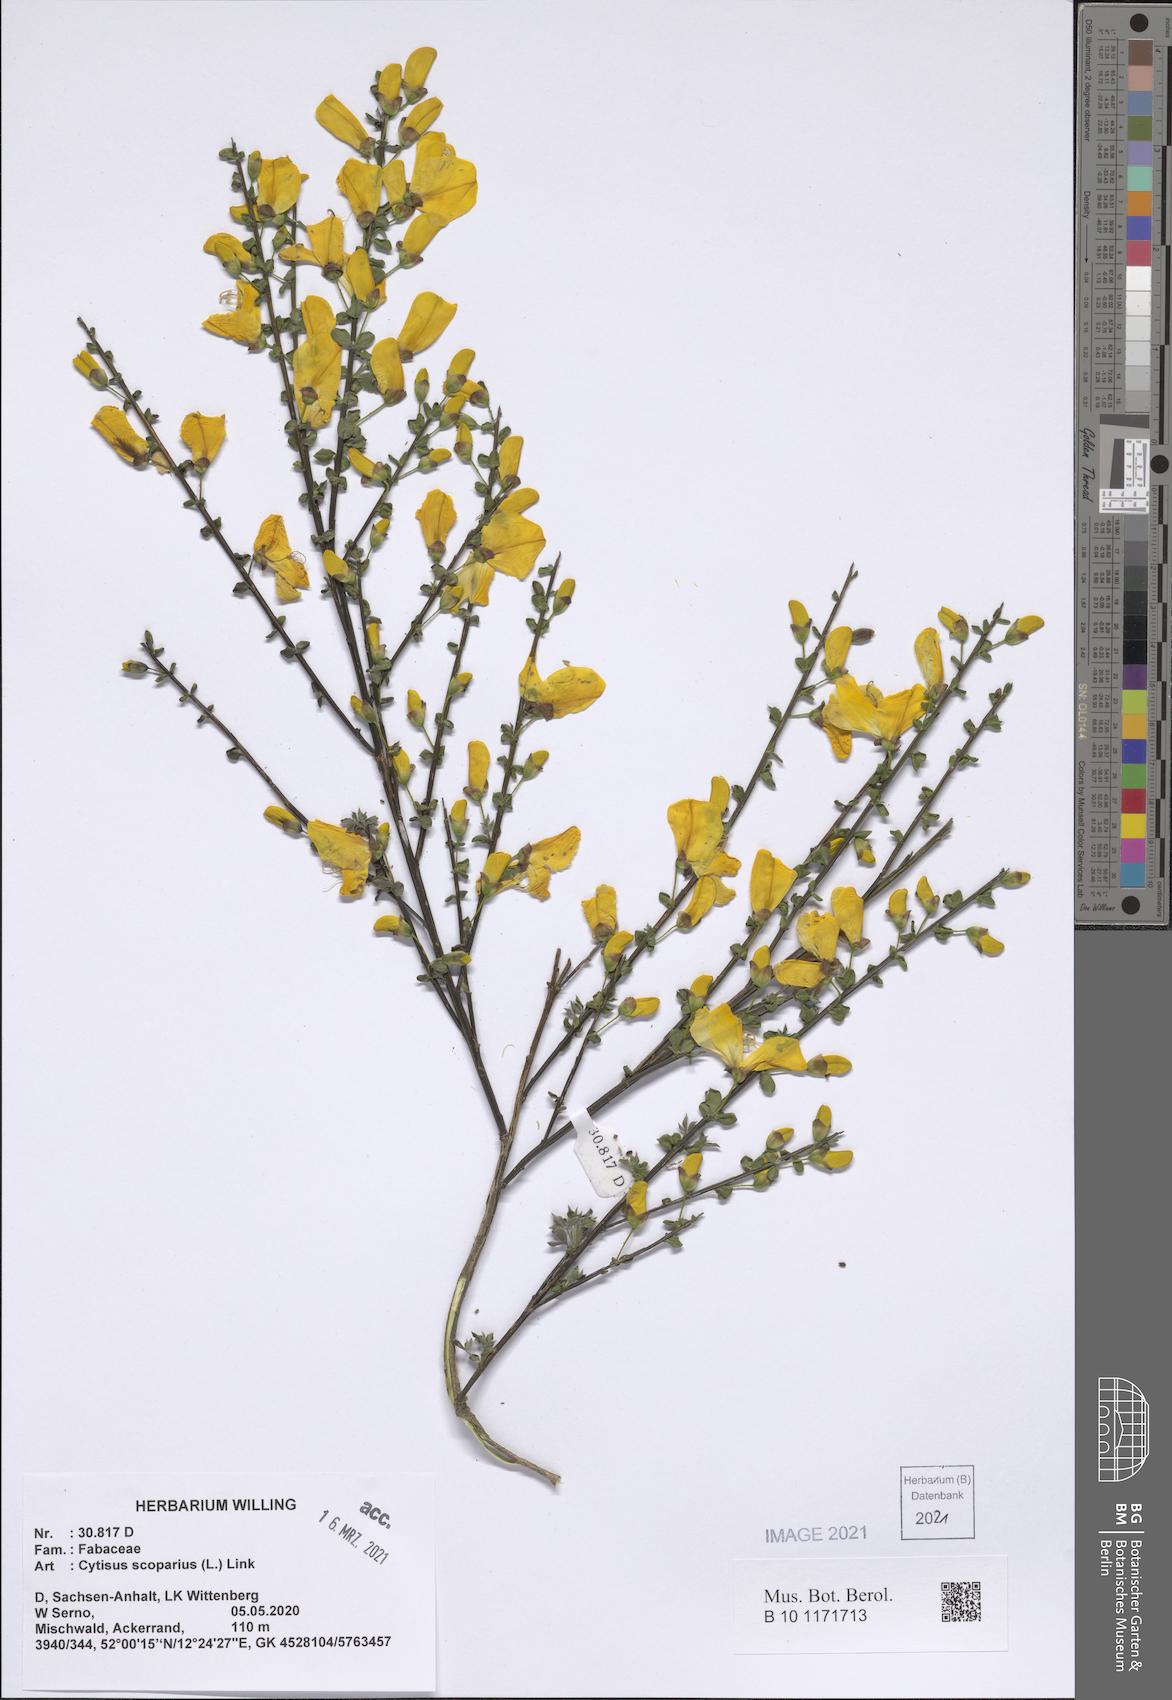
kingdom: Plantae
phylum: Tracheophyta
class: Magnoliopsida
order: Fabales
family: Fabaceae
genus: Cytisus
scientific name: Cytisus scoparius
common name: Scotch broom
